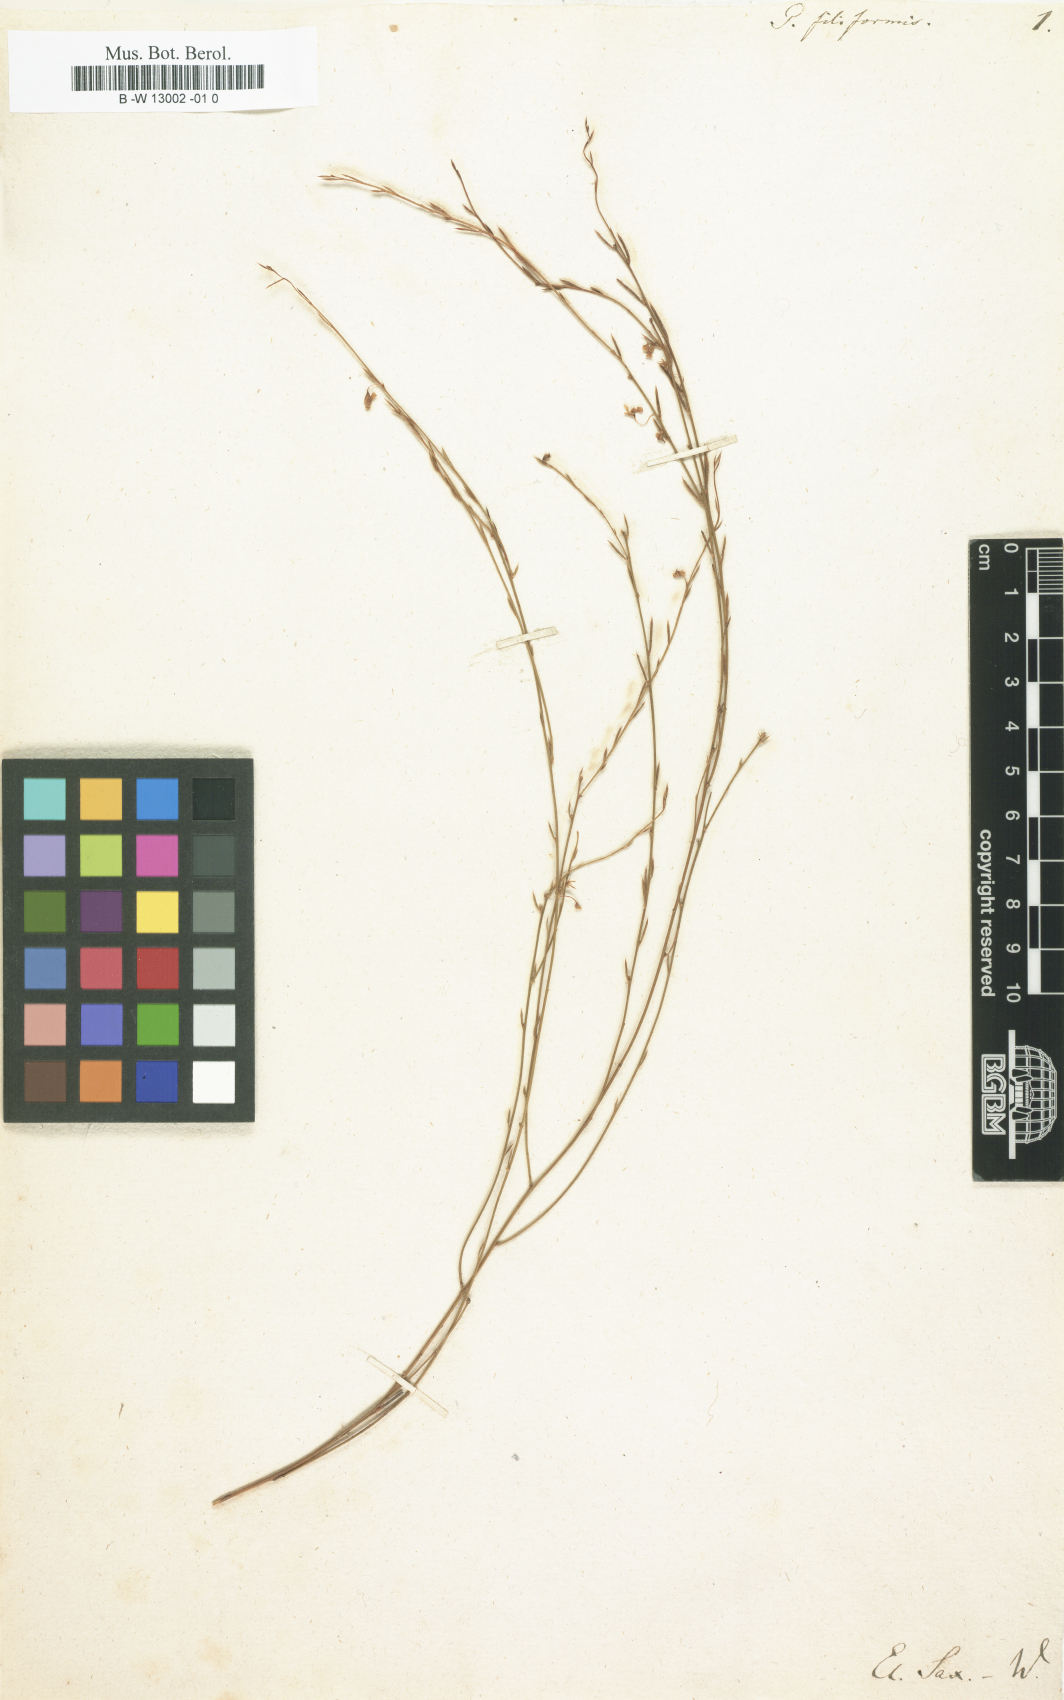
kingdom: Plantae
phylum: Tracheophyta
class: Magnoliopsida
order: Fabales
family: Polygalaceae
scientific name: Polygalaceae
